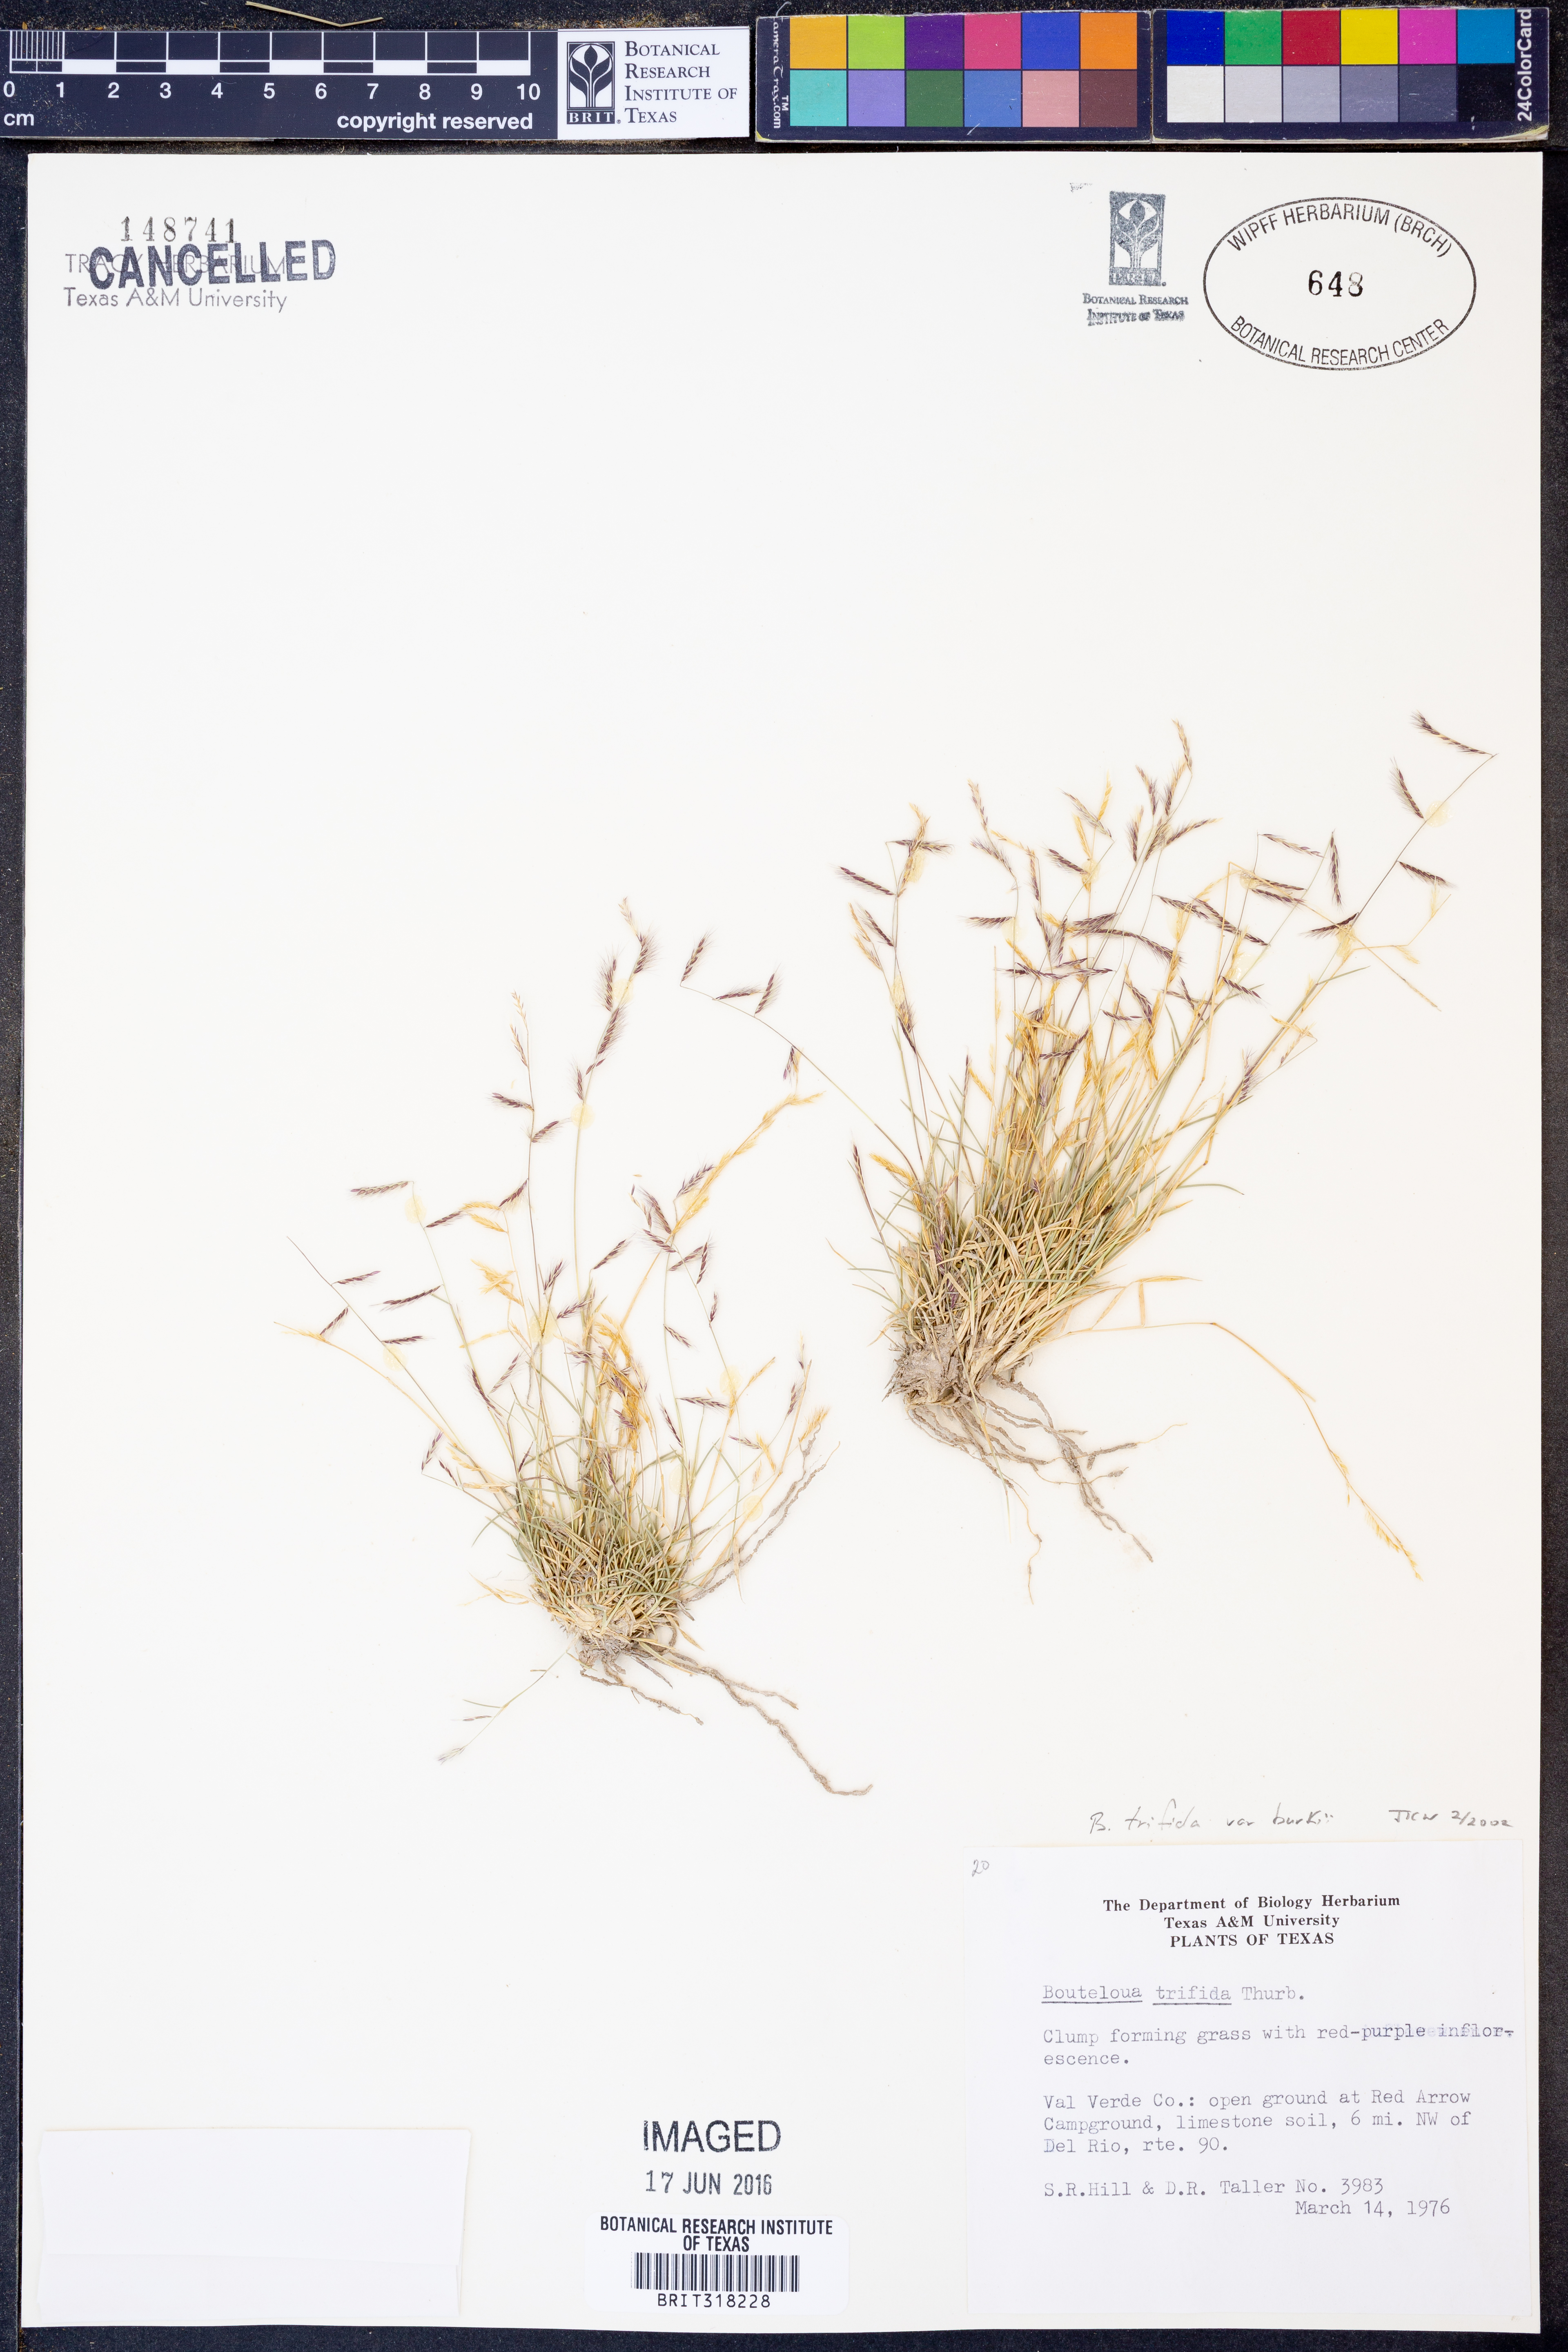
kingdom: Plantae
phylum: Tracheophyta
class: Liliopsida
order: Poales
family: Poaceae
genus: Bouteloua
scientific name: Bouteloua trifida
